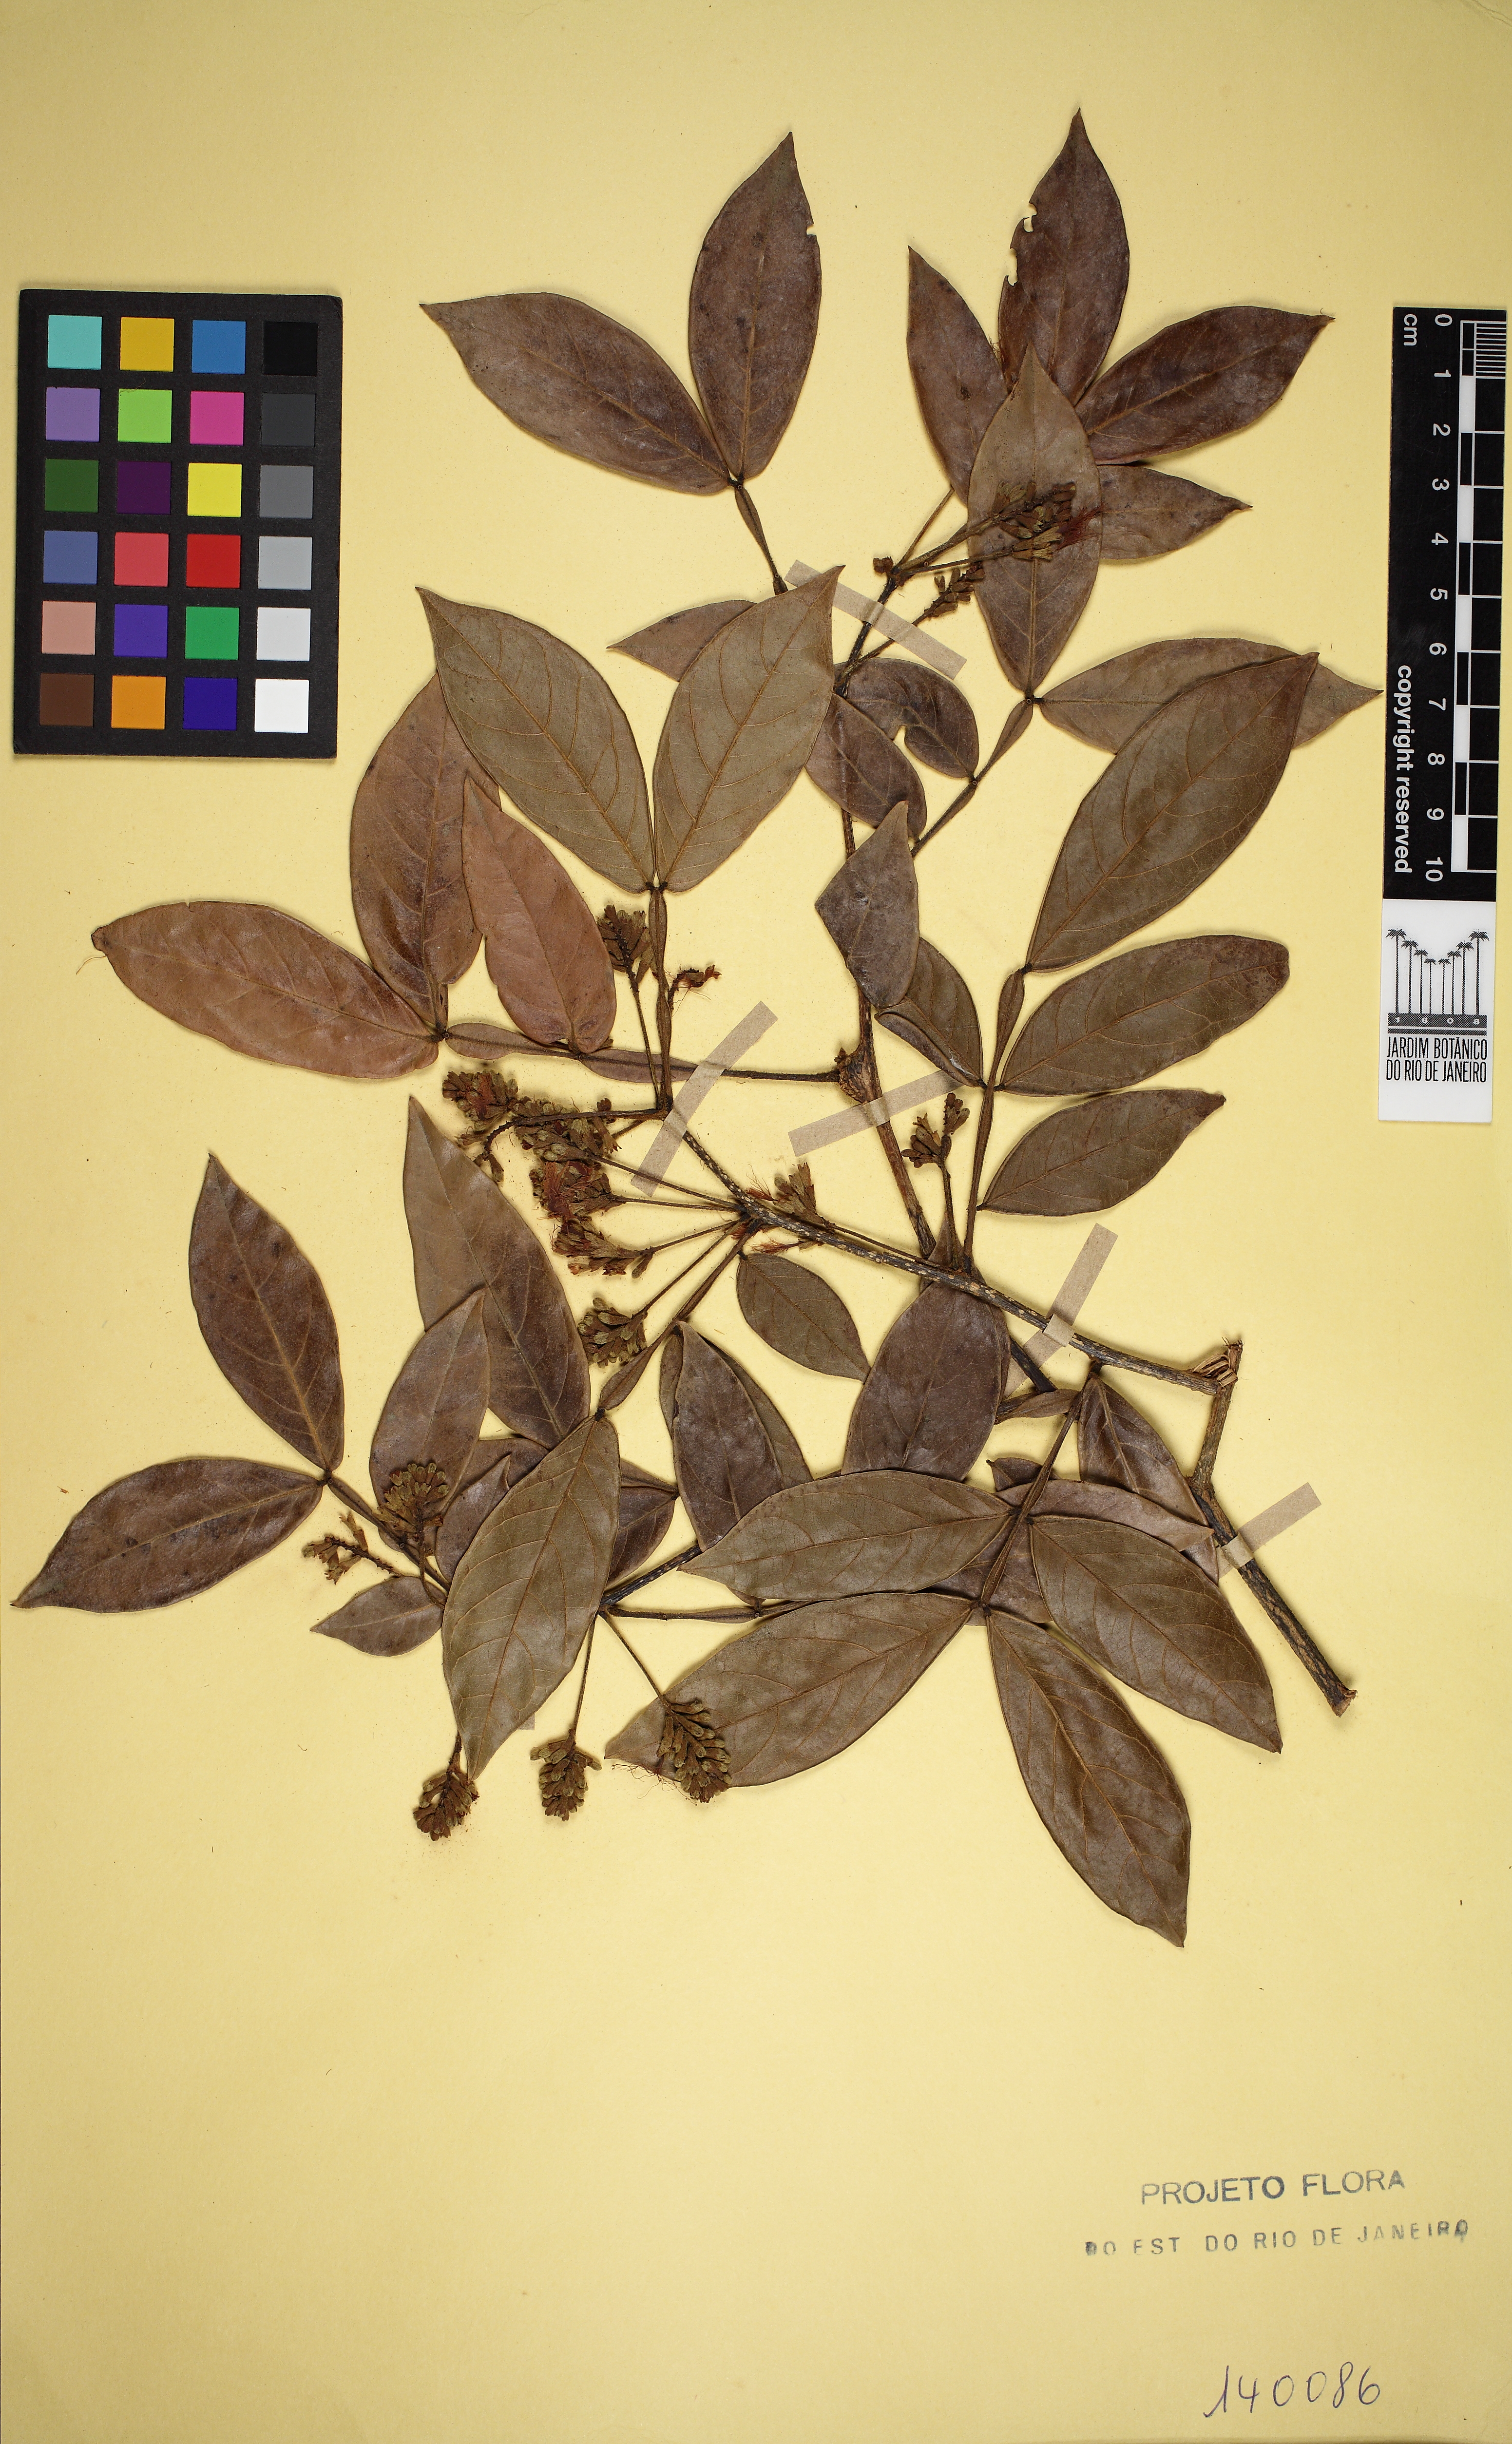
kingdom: Plantae
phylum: Tracheophyta
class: Magnoliopsida
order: Fabales
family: Fabaceae
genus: Inga
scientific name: Inga maritima
